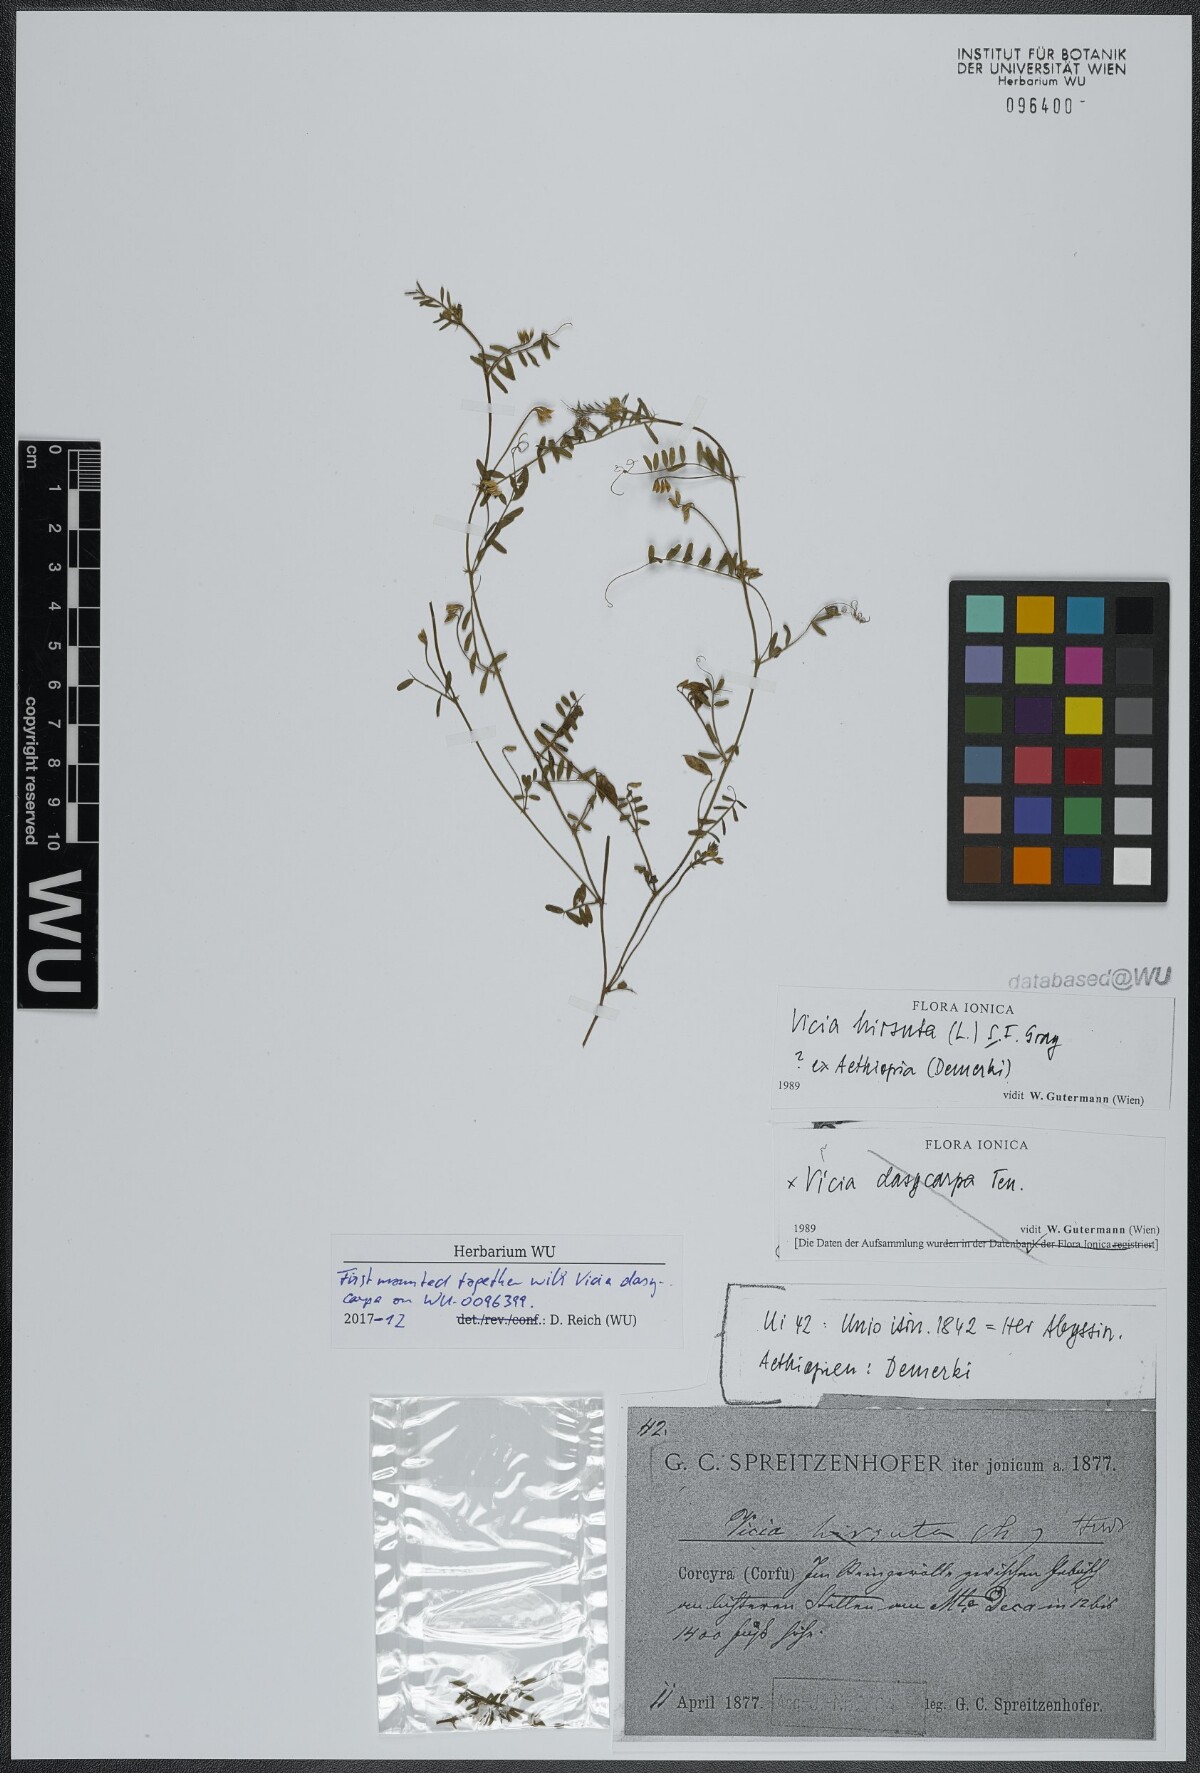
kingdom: Plantae
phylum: Tracheophyta
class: Magnoliopsida
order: Fabales
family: Fabaceae
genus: Vicia
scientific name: Vicia hirsuta
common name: Tiny vetch
